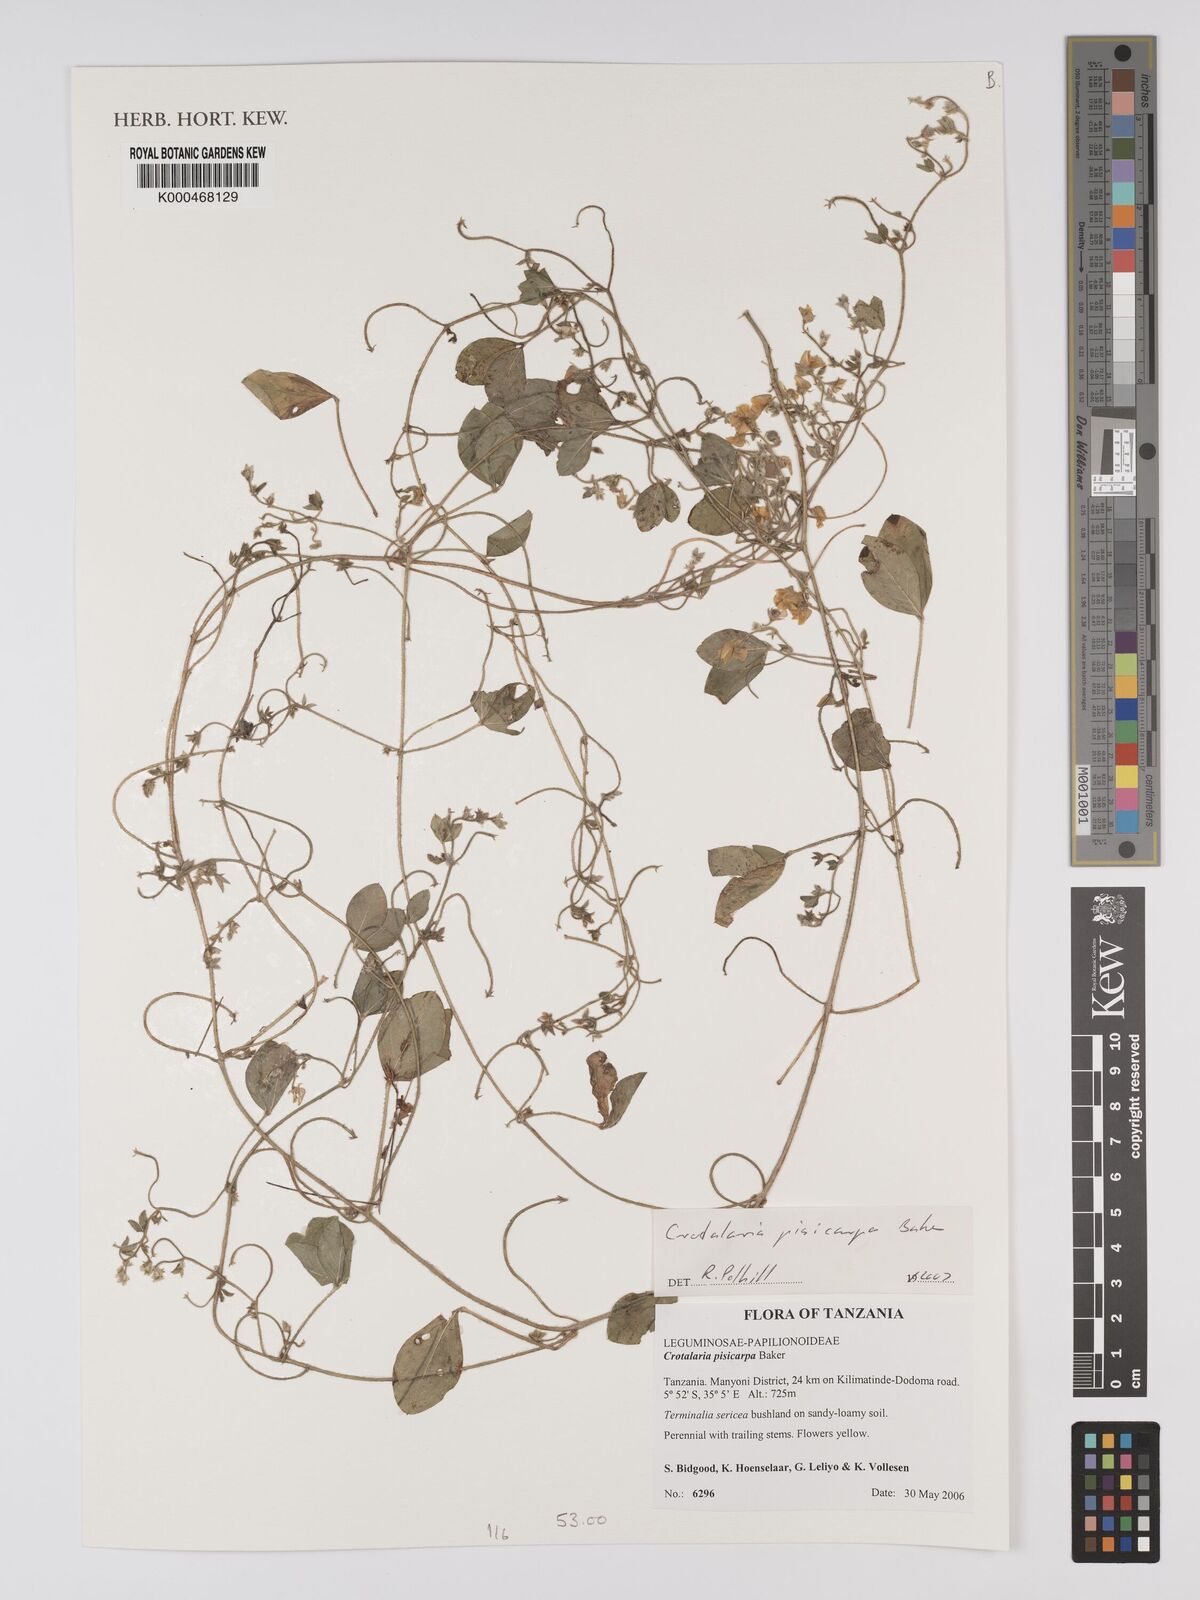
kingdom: Plantae
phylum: Tracheophyta
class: Magnoliopsida
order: Fabales
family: Fabaceae
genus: Crotalaria
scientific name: Crotalaria pisicarpa
